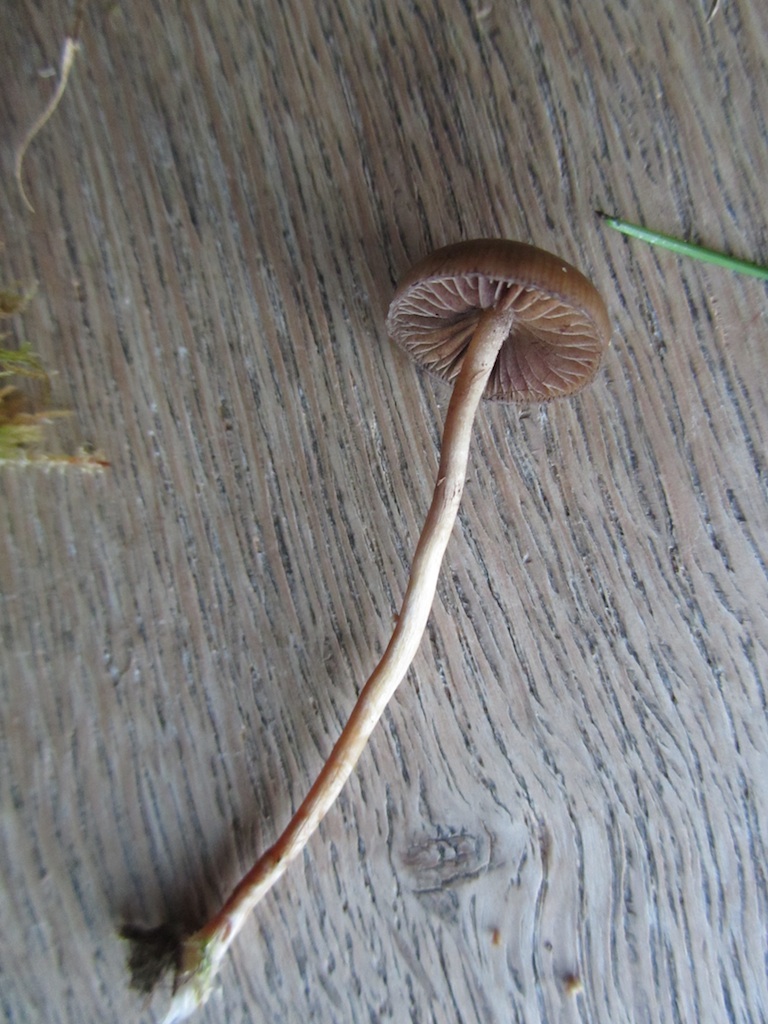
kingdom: Fungi
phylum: Basidiomycota
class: Agaricomycetes
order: Agaricales
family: Hymenogastraceae
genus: Psilocybe
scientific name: Psilocybe fimetaria
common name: prægtig nøgenhat
